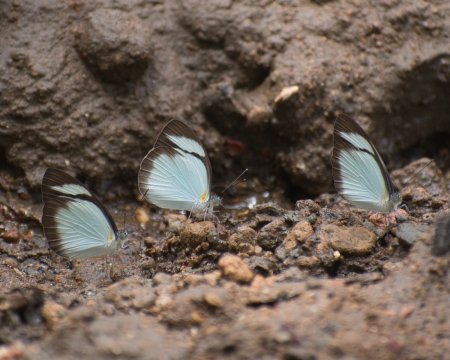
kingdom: Animalia
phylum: Arthropoda
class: Insecta
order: Lepidoptera
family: Pieridae
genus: Itaballia
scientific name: Itaballia demophile
